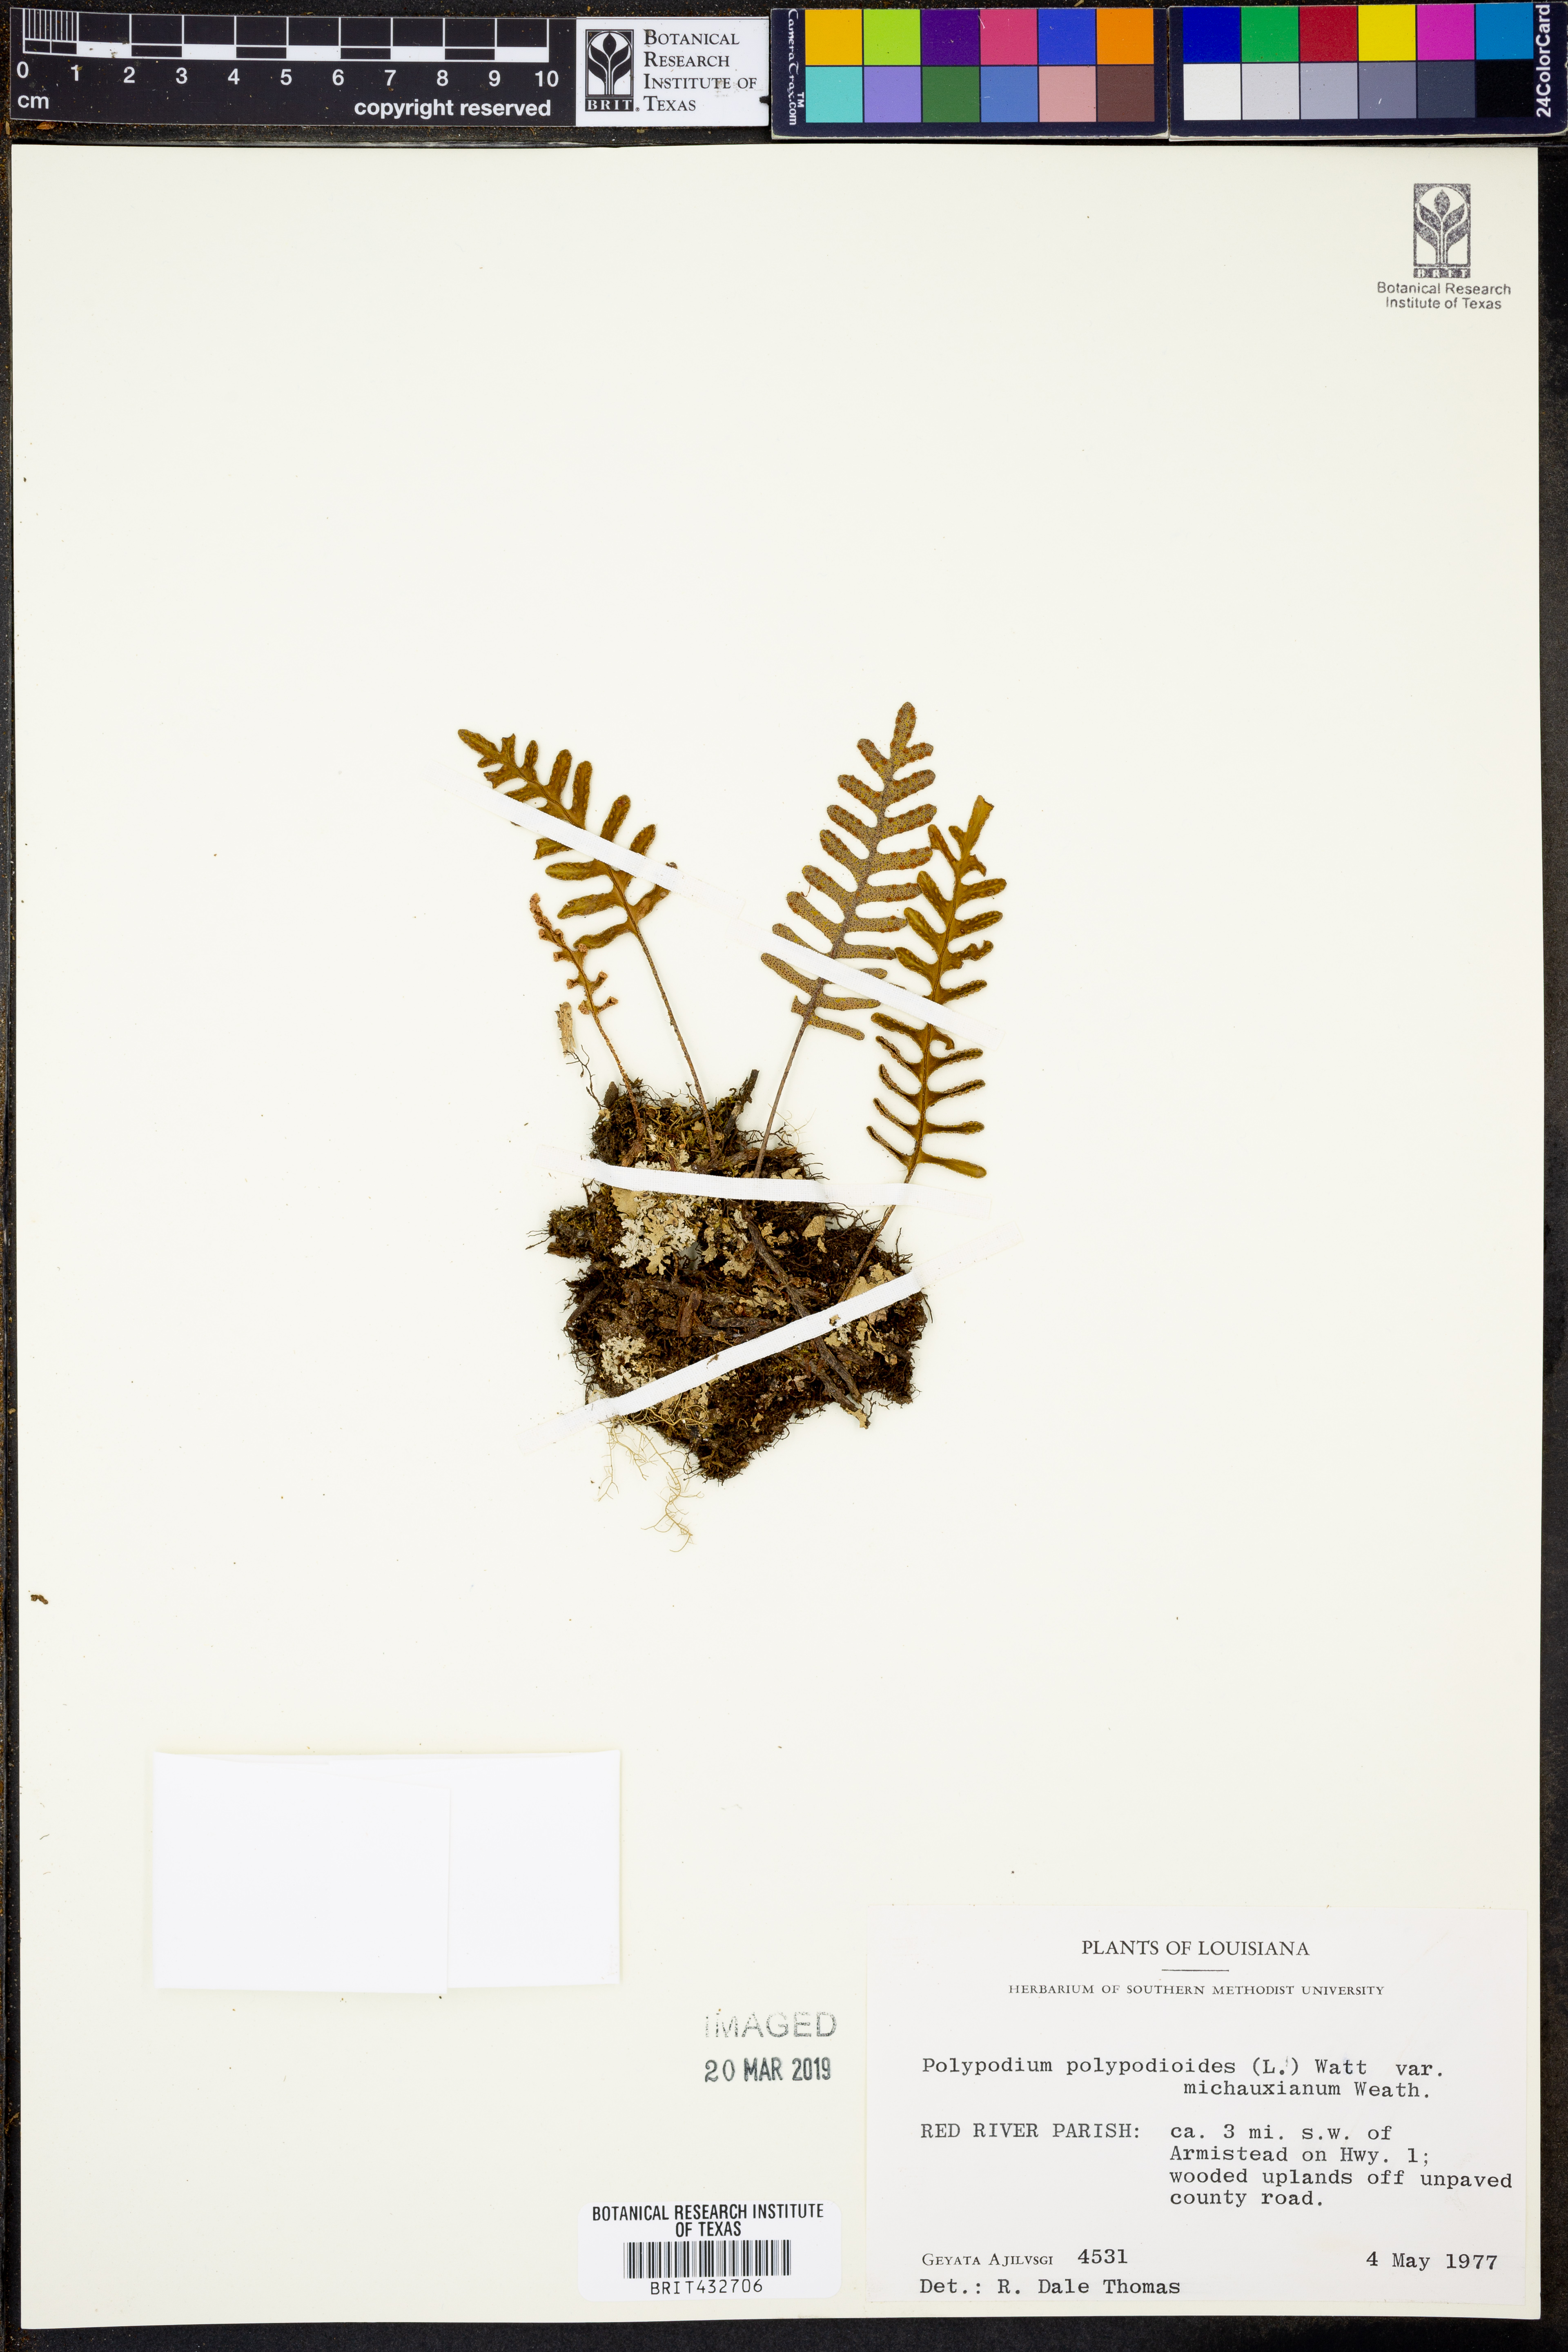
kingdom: Plantae
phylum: Tracheophyta
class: Polypodiopsida
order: Polypodiales
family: Polypodiaceae
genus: Pleopeltis
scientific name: Pleopeltis michauxiana
